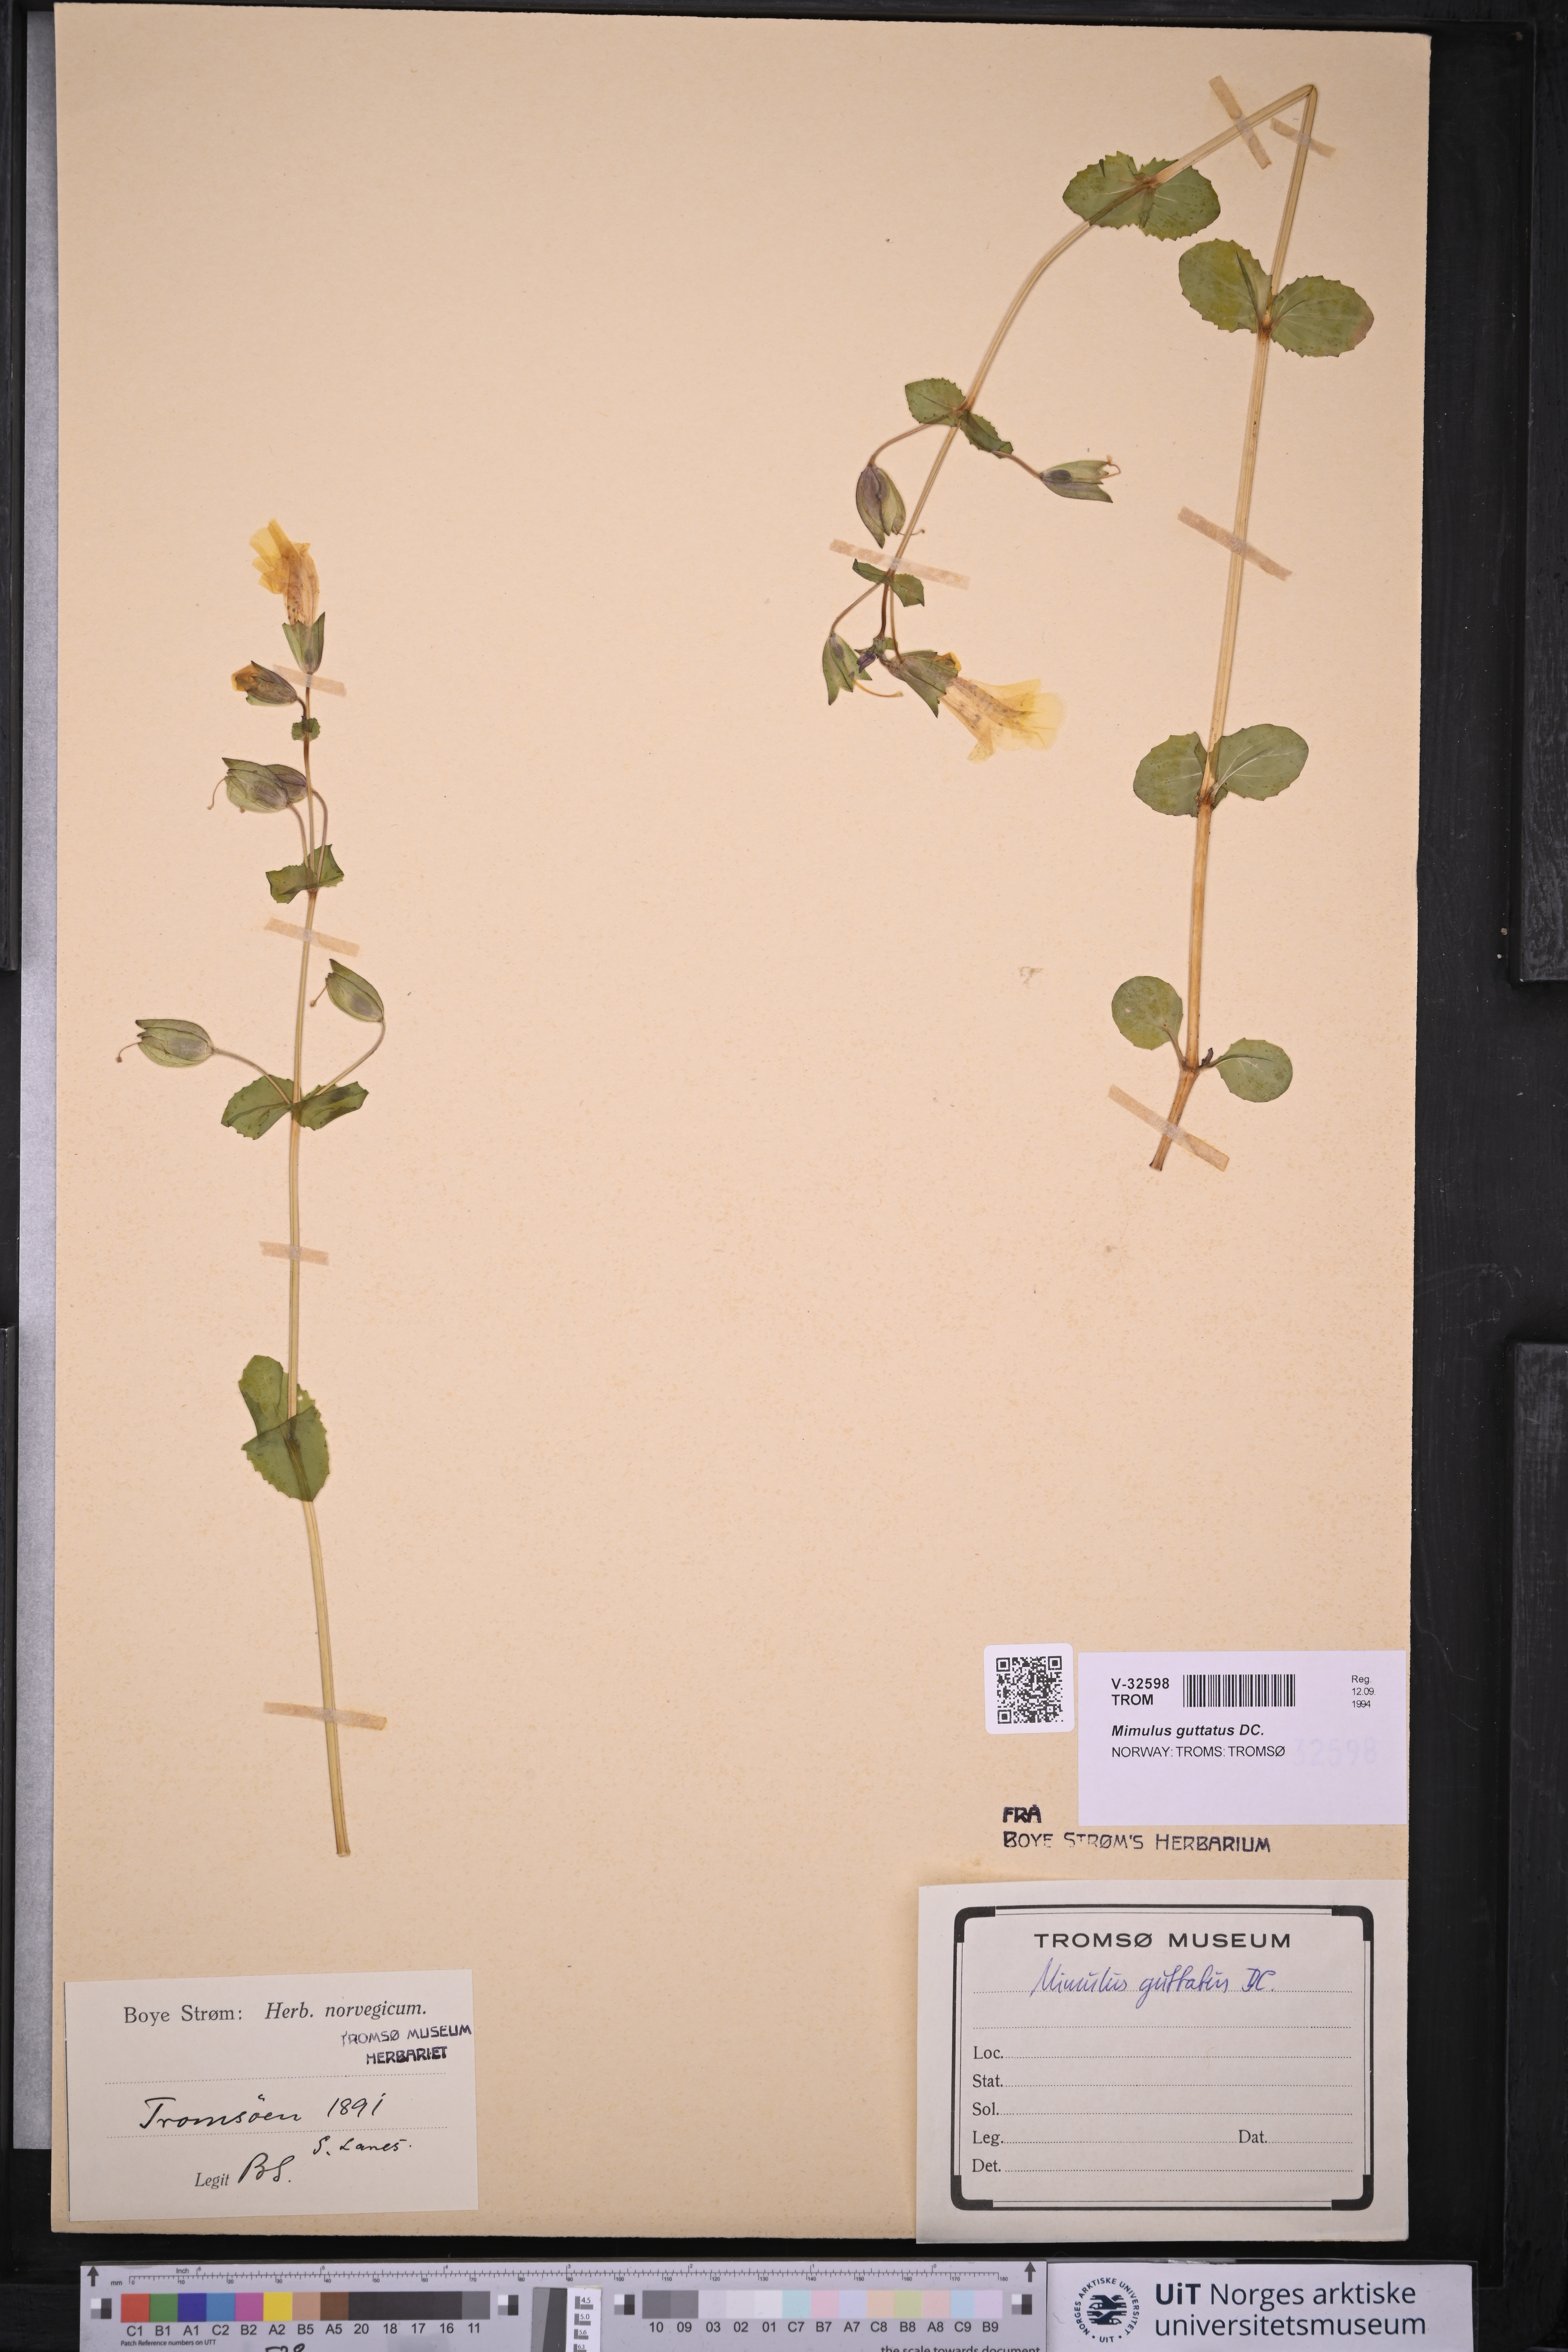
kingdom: Plantae
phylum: Tracheophyta
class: Magnoliopsida
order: Lamiales
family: Phrymaceae
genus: Erythranthe
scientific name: Erythranthe guttata
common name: Monkeyflower
